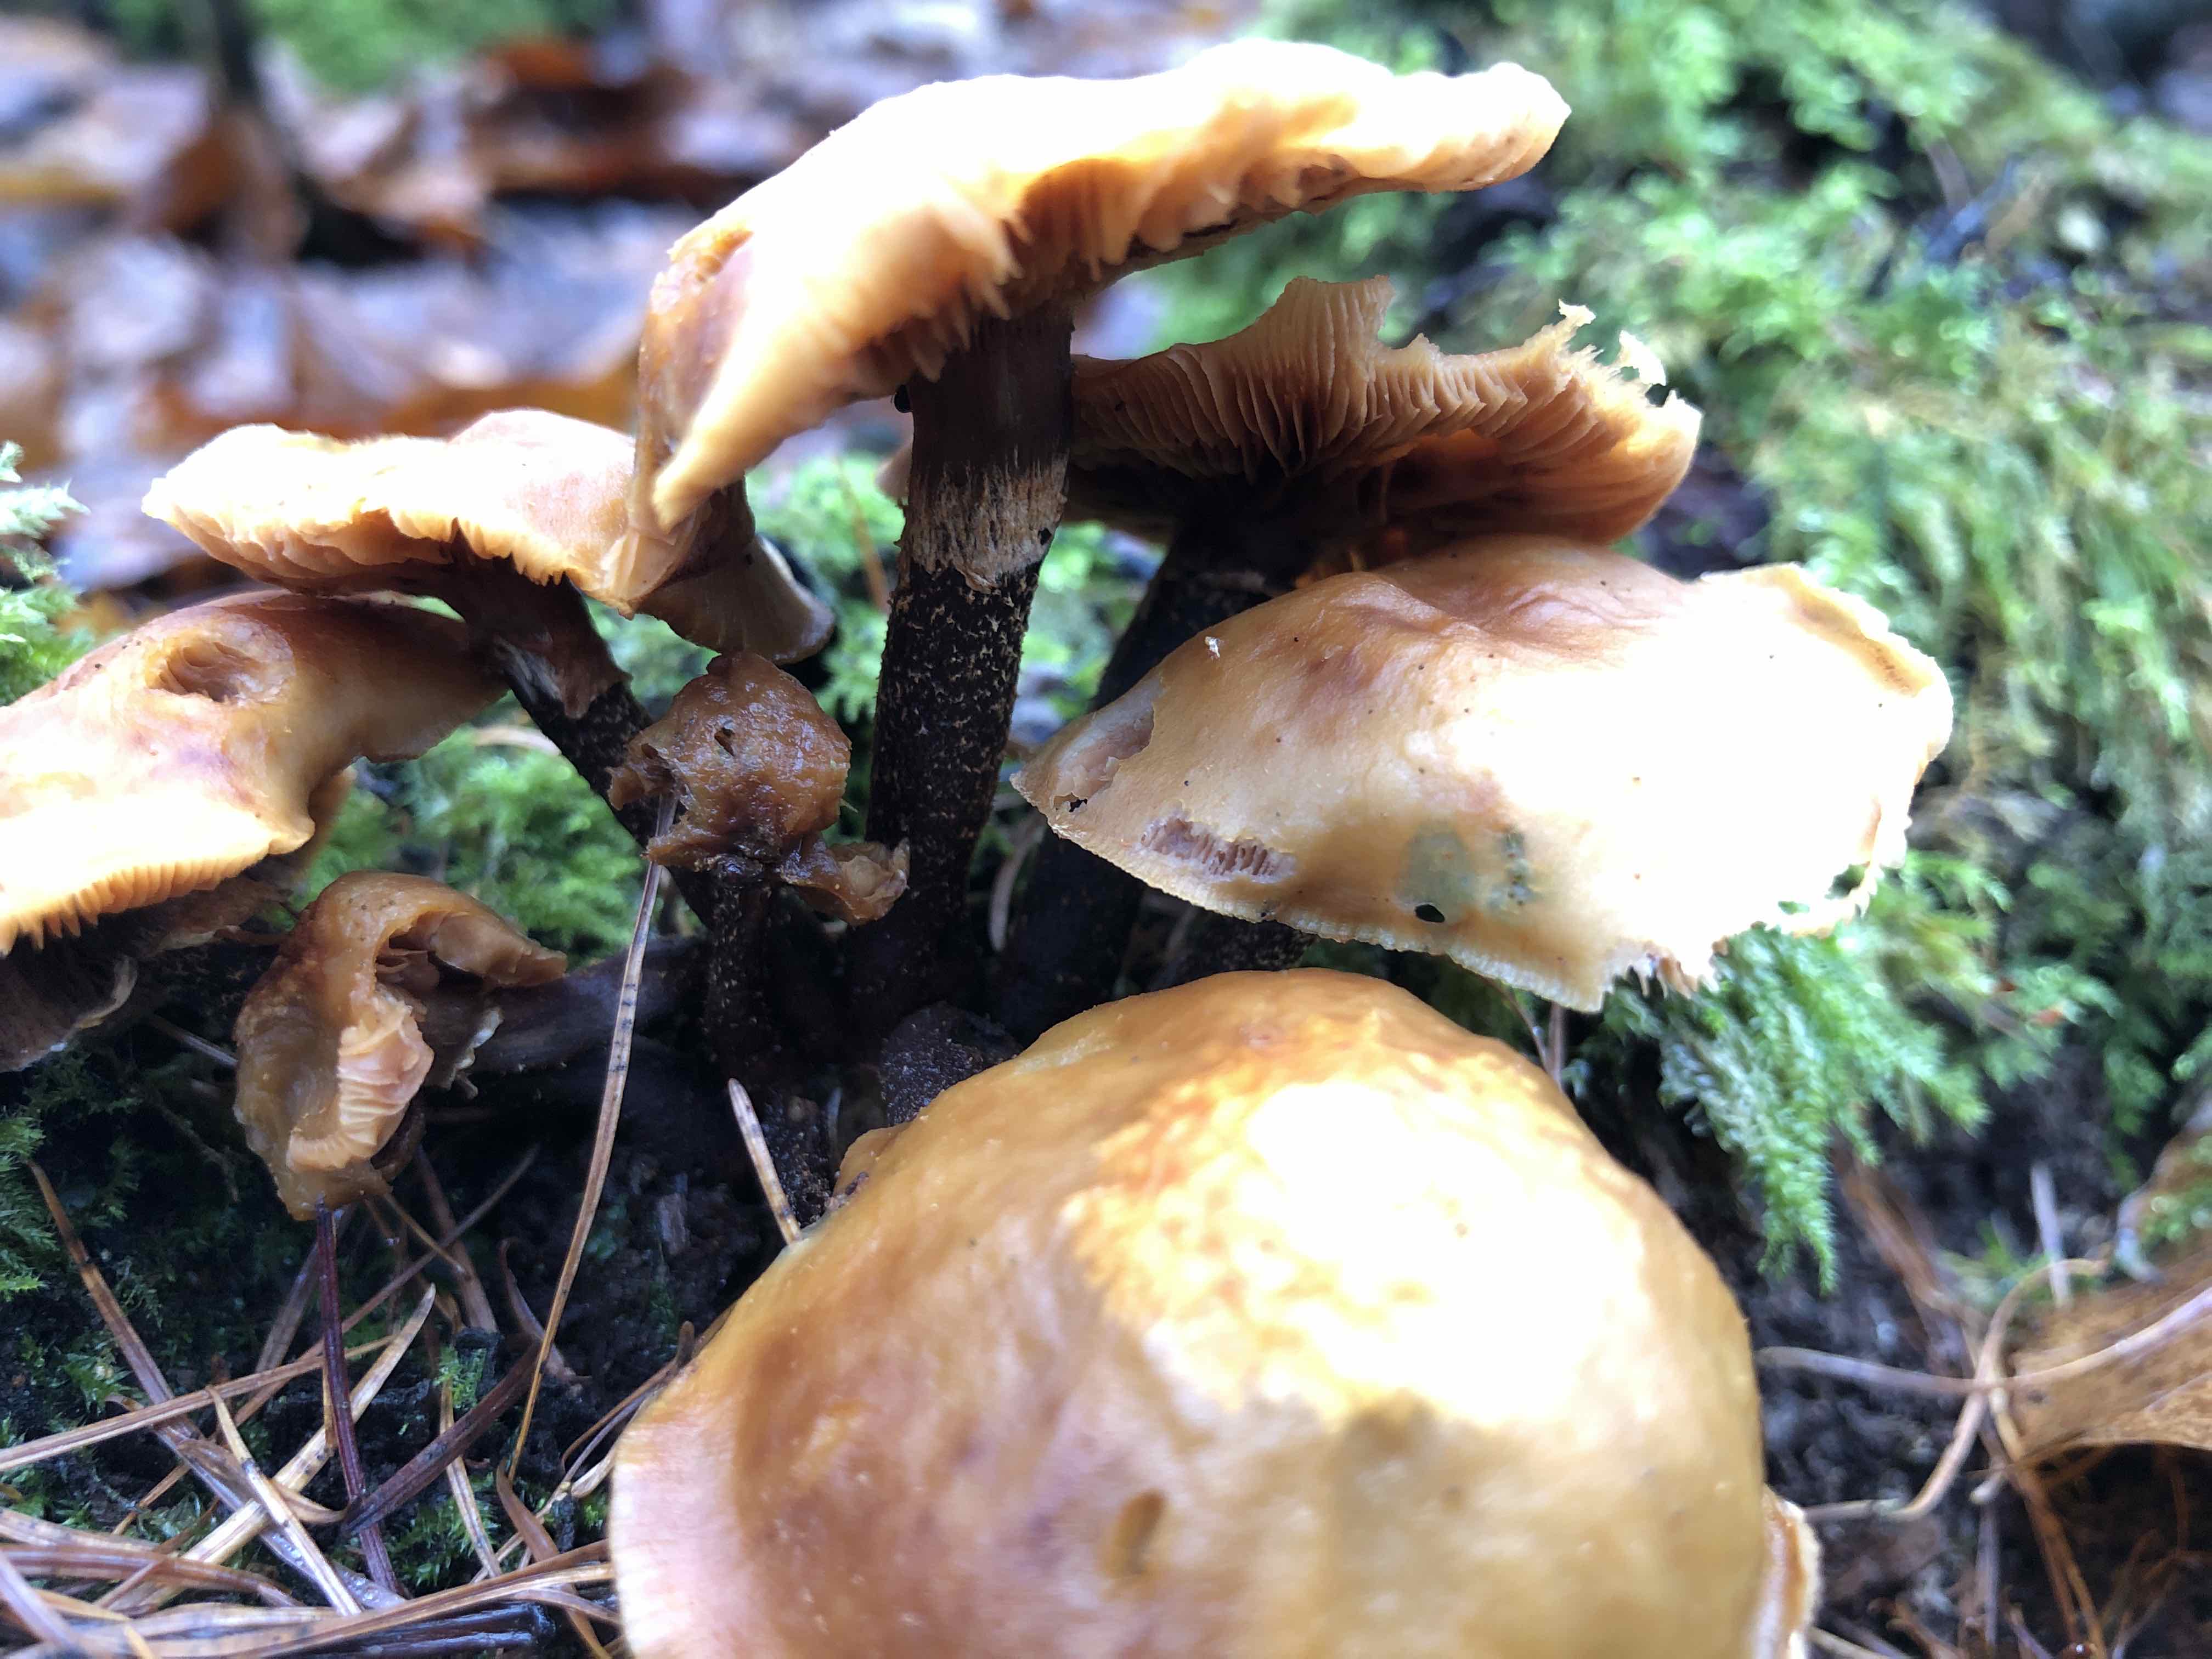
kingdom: Fungi
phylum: Basidiomycota
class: Agaricomycetes
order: Agaricales
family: Strophariaceae
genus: Kuehneromyces
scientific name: Kuehneromyces mutabilis
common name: foranderlig skælhat
